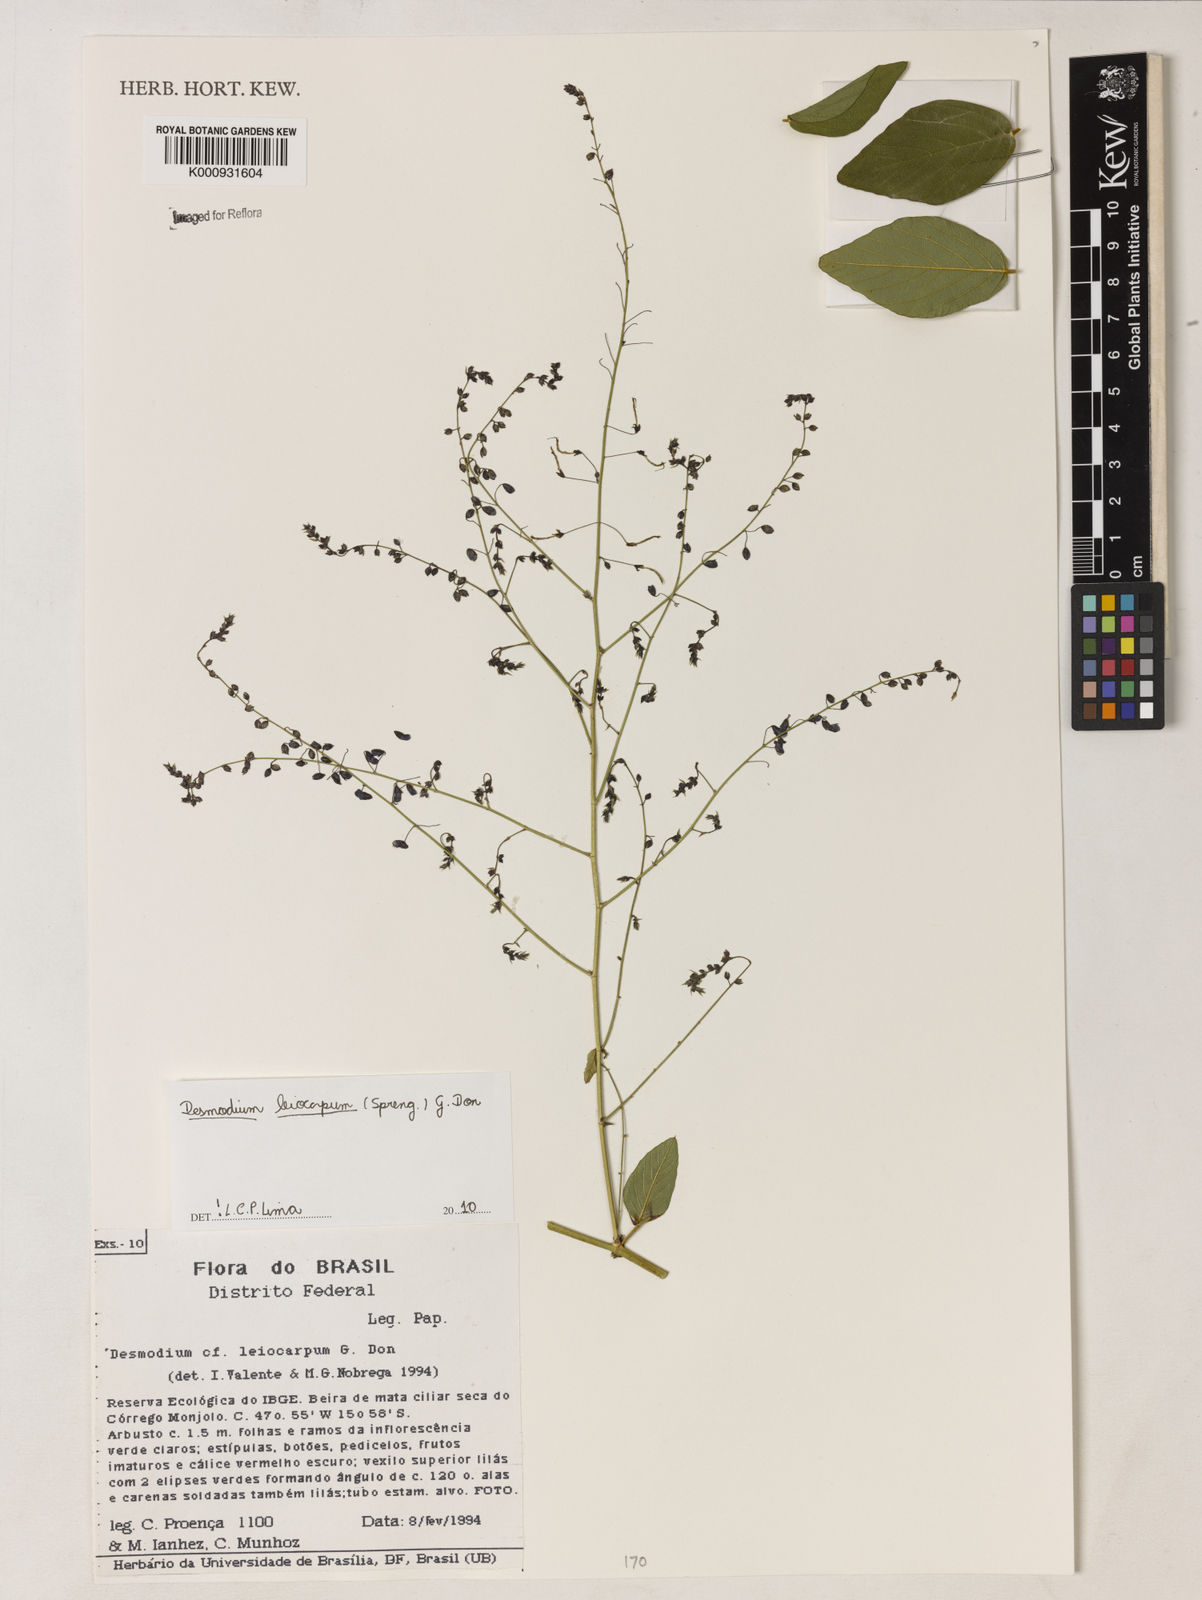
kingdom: Plantae
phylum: Tracheophyta
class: Magnoliopsida
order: Fabales
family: Fabaceae
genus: Desmodium
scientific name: Desmodium leiocarpum
